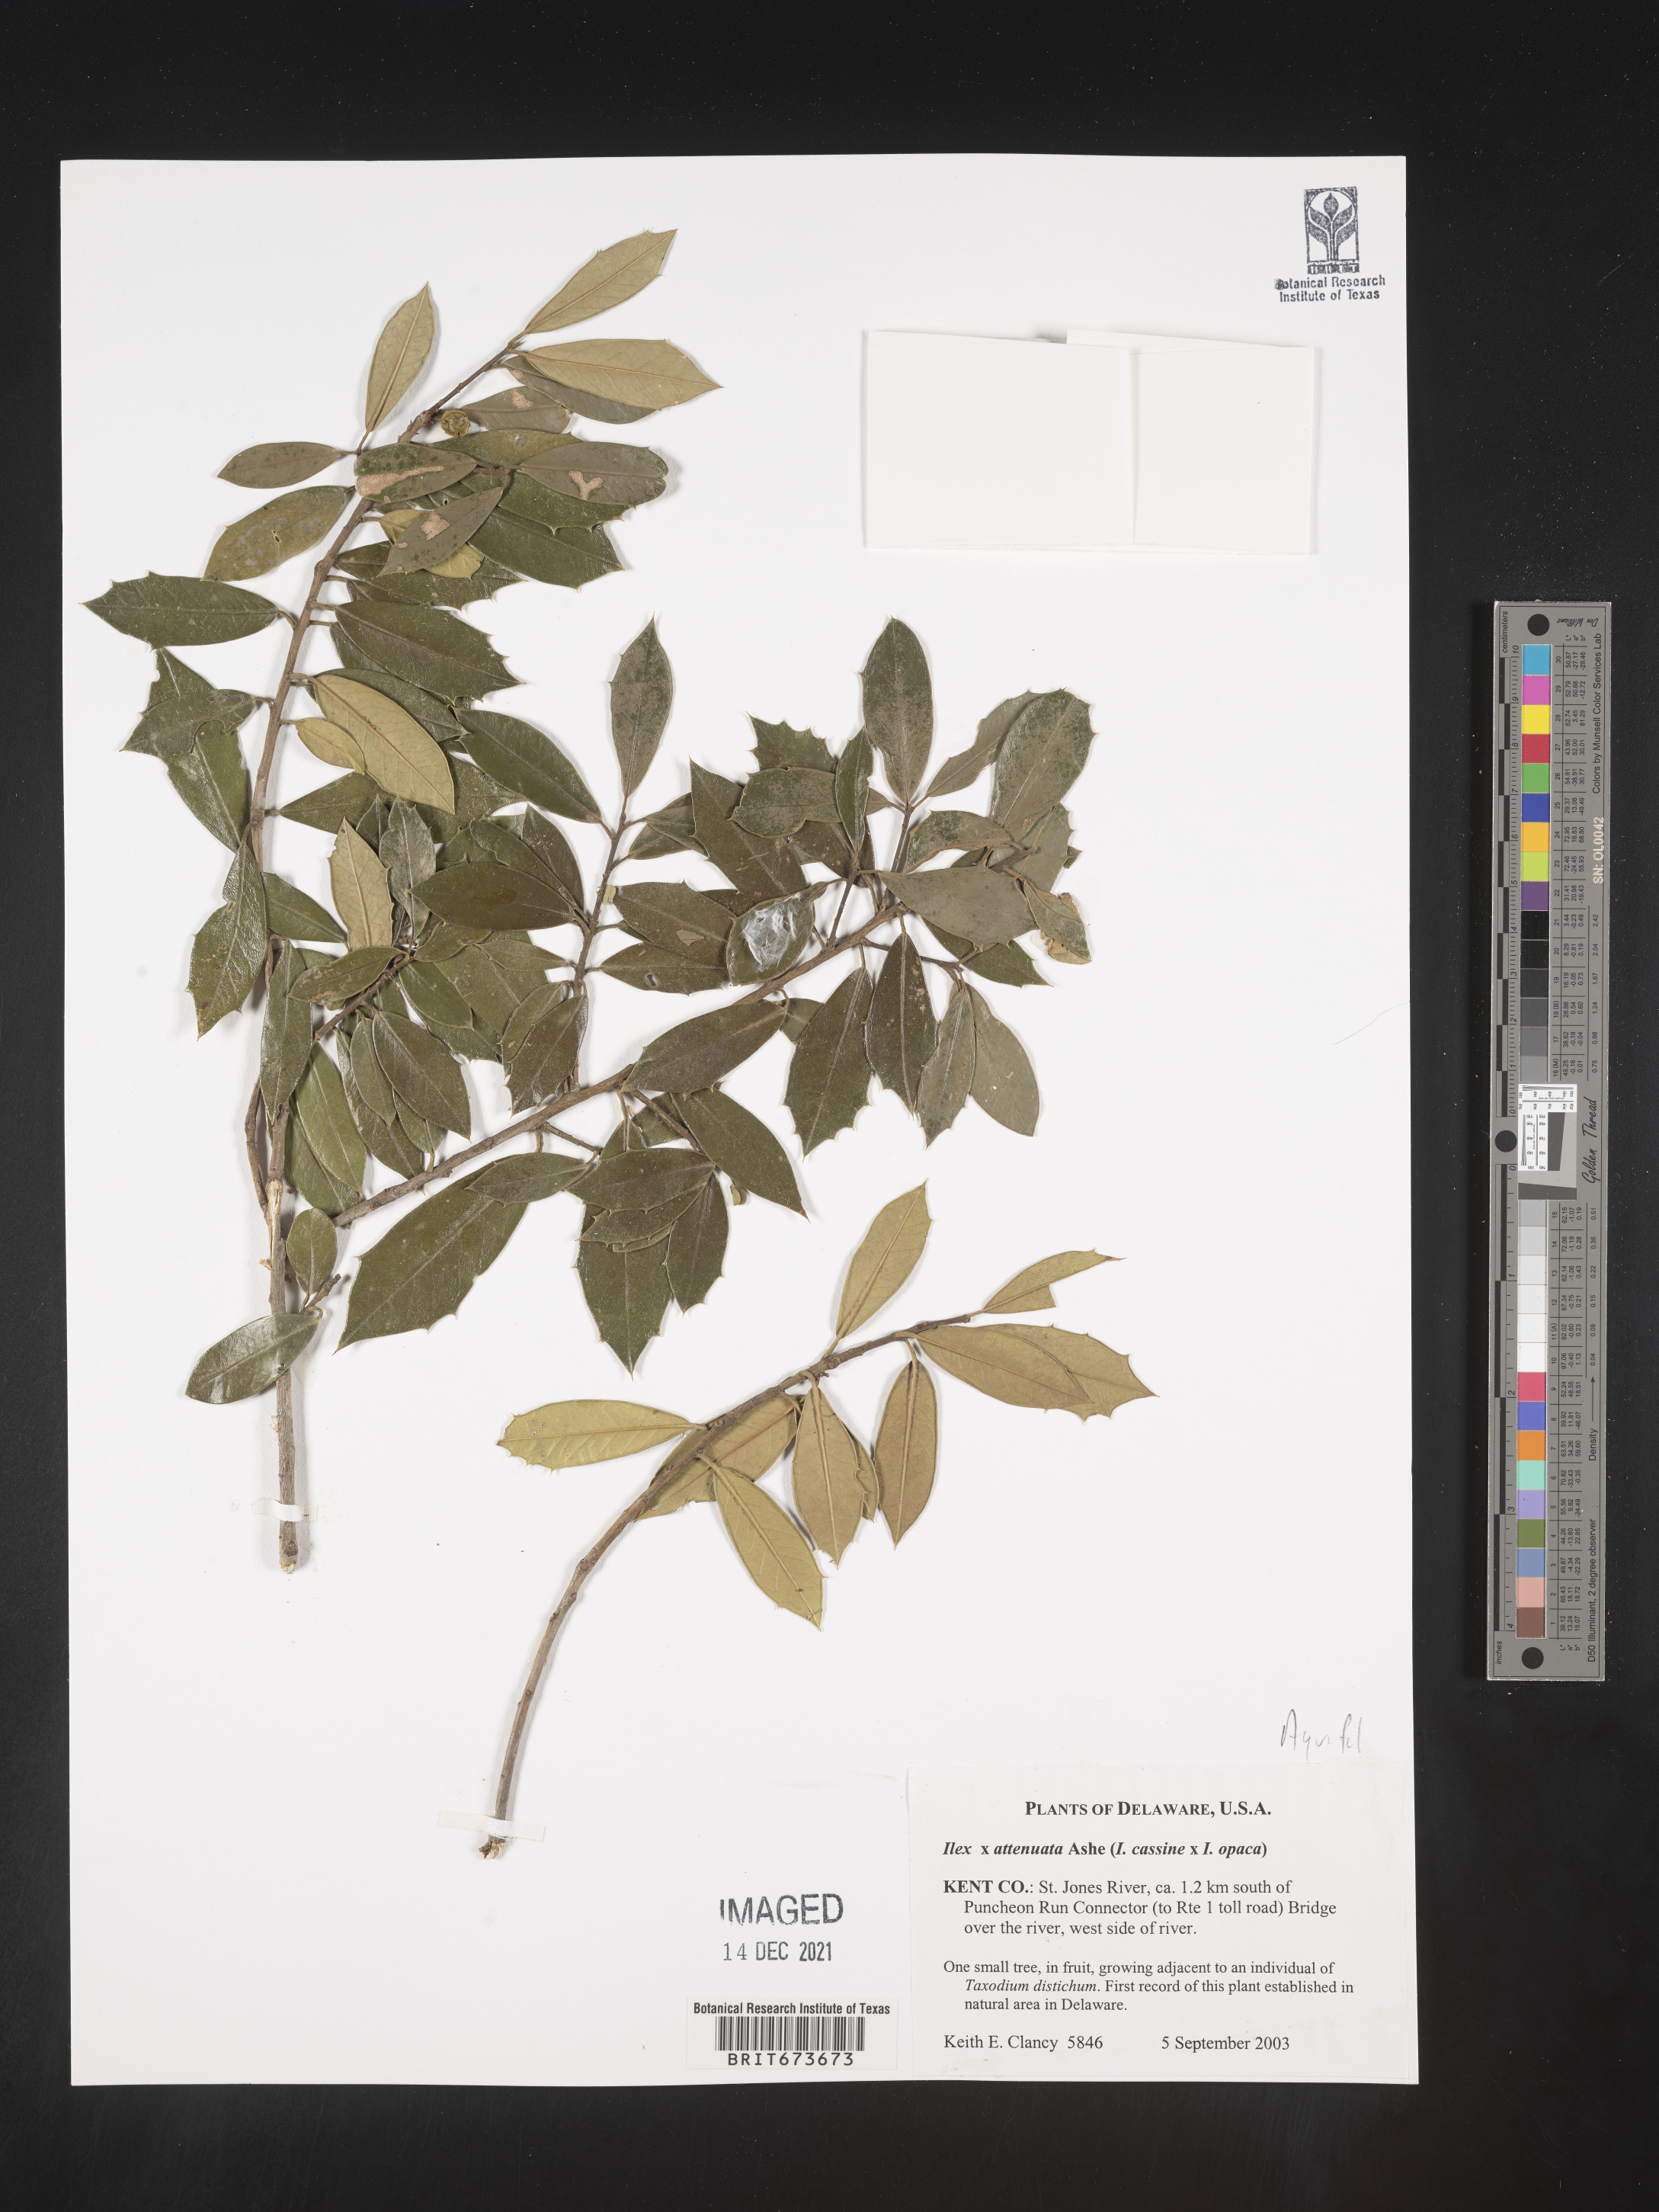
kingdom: Plantae
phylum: Tracheophyta
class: Magnoliopsida
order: Aquifoliales
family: Aquifoliaceae
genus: Ilex
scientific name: Ilex
